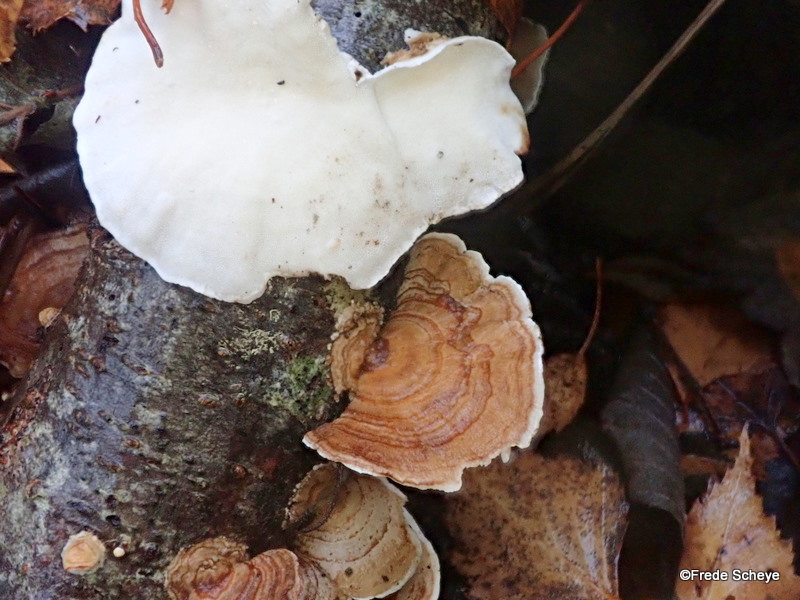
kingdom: Fungi
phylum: Basidiomycota
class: Agaricomycetes
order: Russulales
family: Stereaceae
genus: Stereum
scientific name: Stereum subtomentosum
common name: smuk lædersvamp
